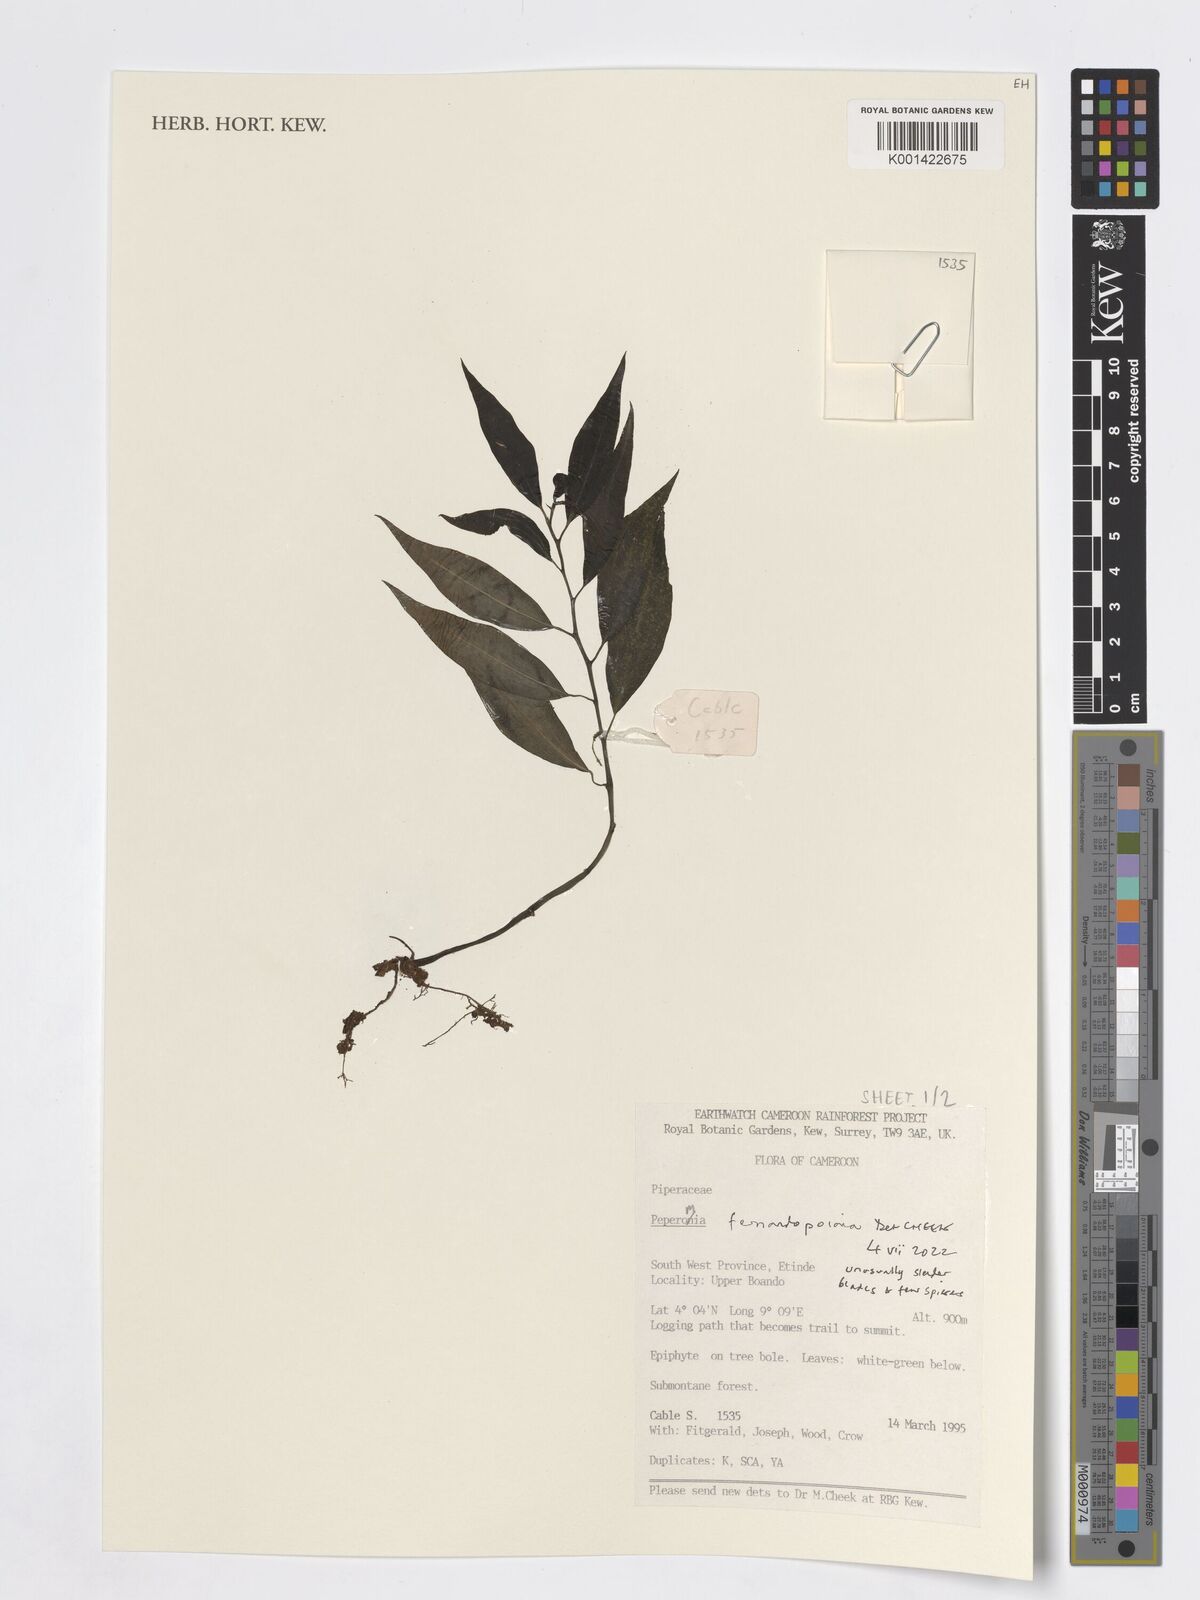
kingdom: Plantae
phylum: Tracheophyta
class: Magnoliopsida
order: Piperales
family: Piperaceae
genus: Peperomia
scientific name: Peperomia fernandopoiana
